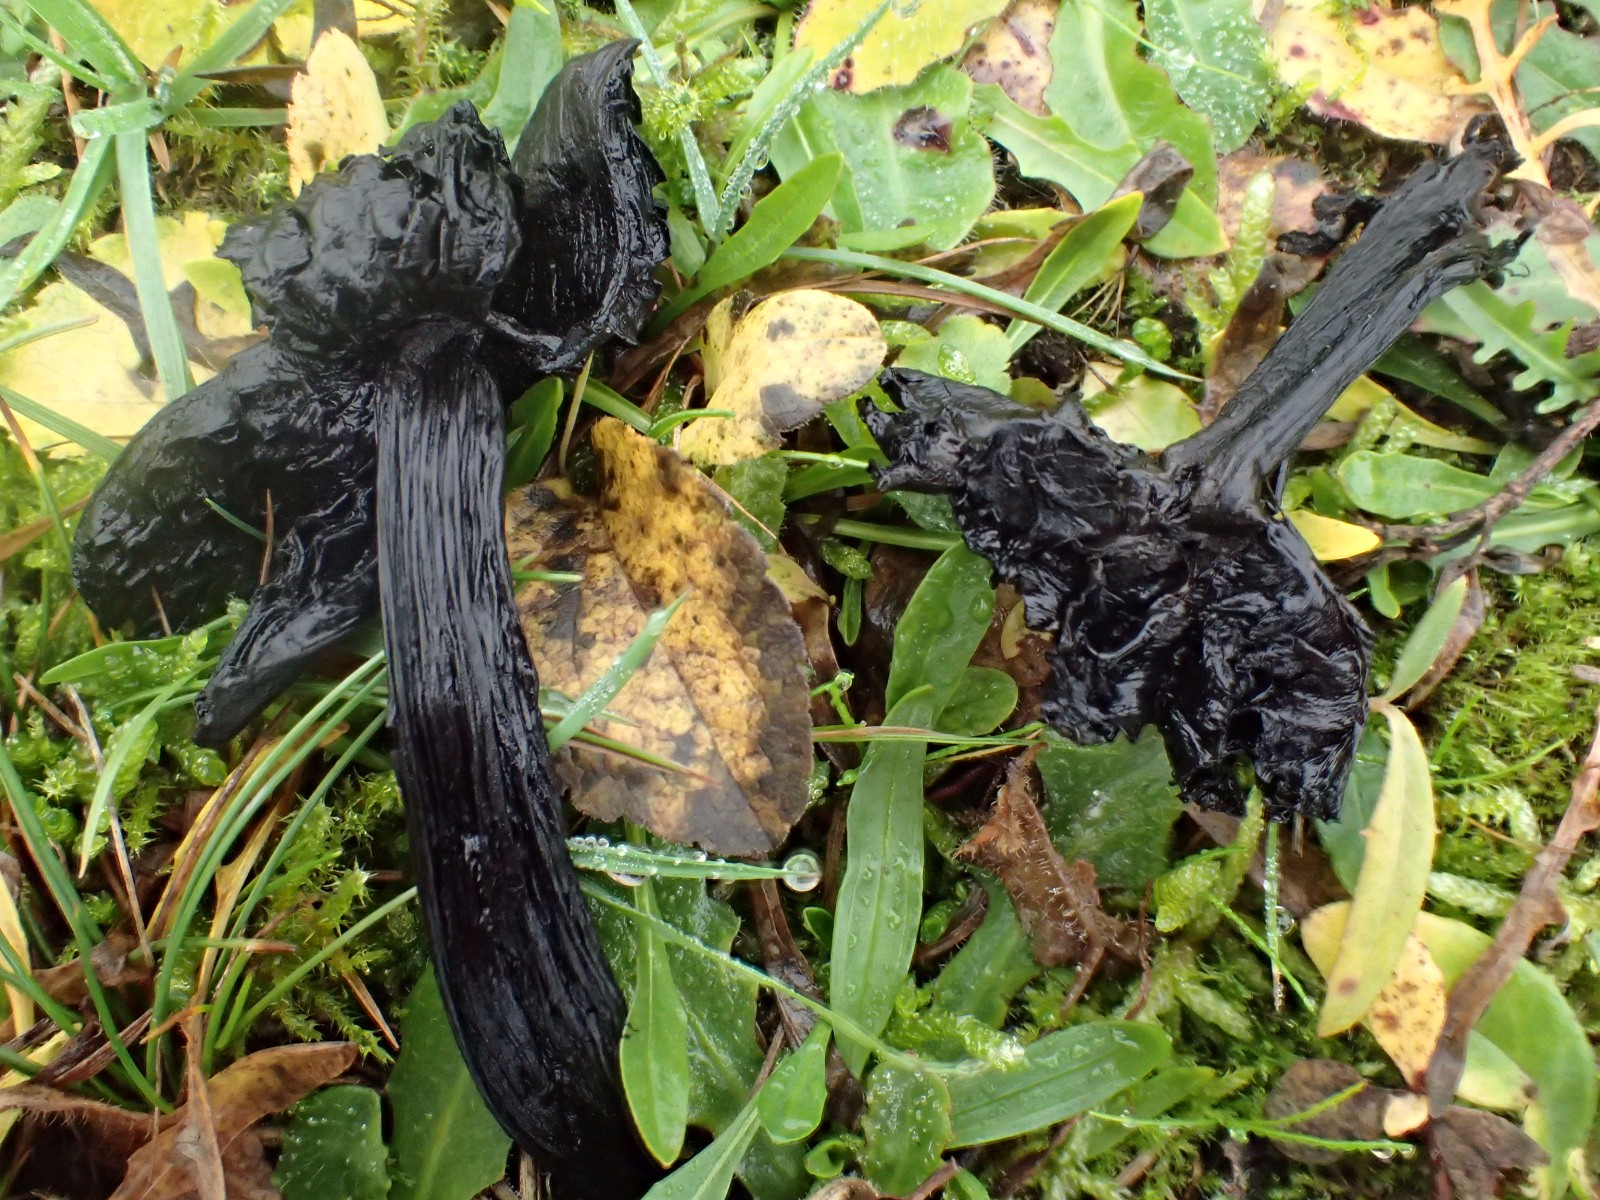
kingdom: Fungi
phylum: Basidiomycota
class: Agaricomycetes
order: Agaricales
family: Hygrophoraceae
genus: Hygrocybe
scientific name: Hygrocybe conica
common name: kegle-vokshat
